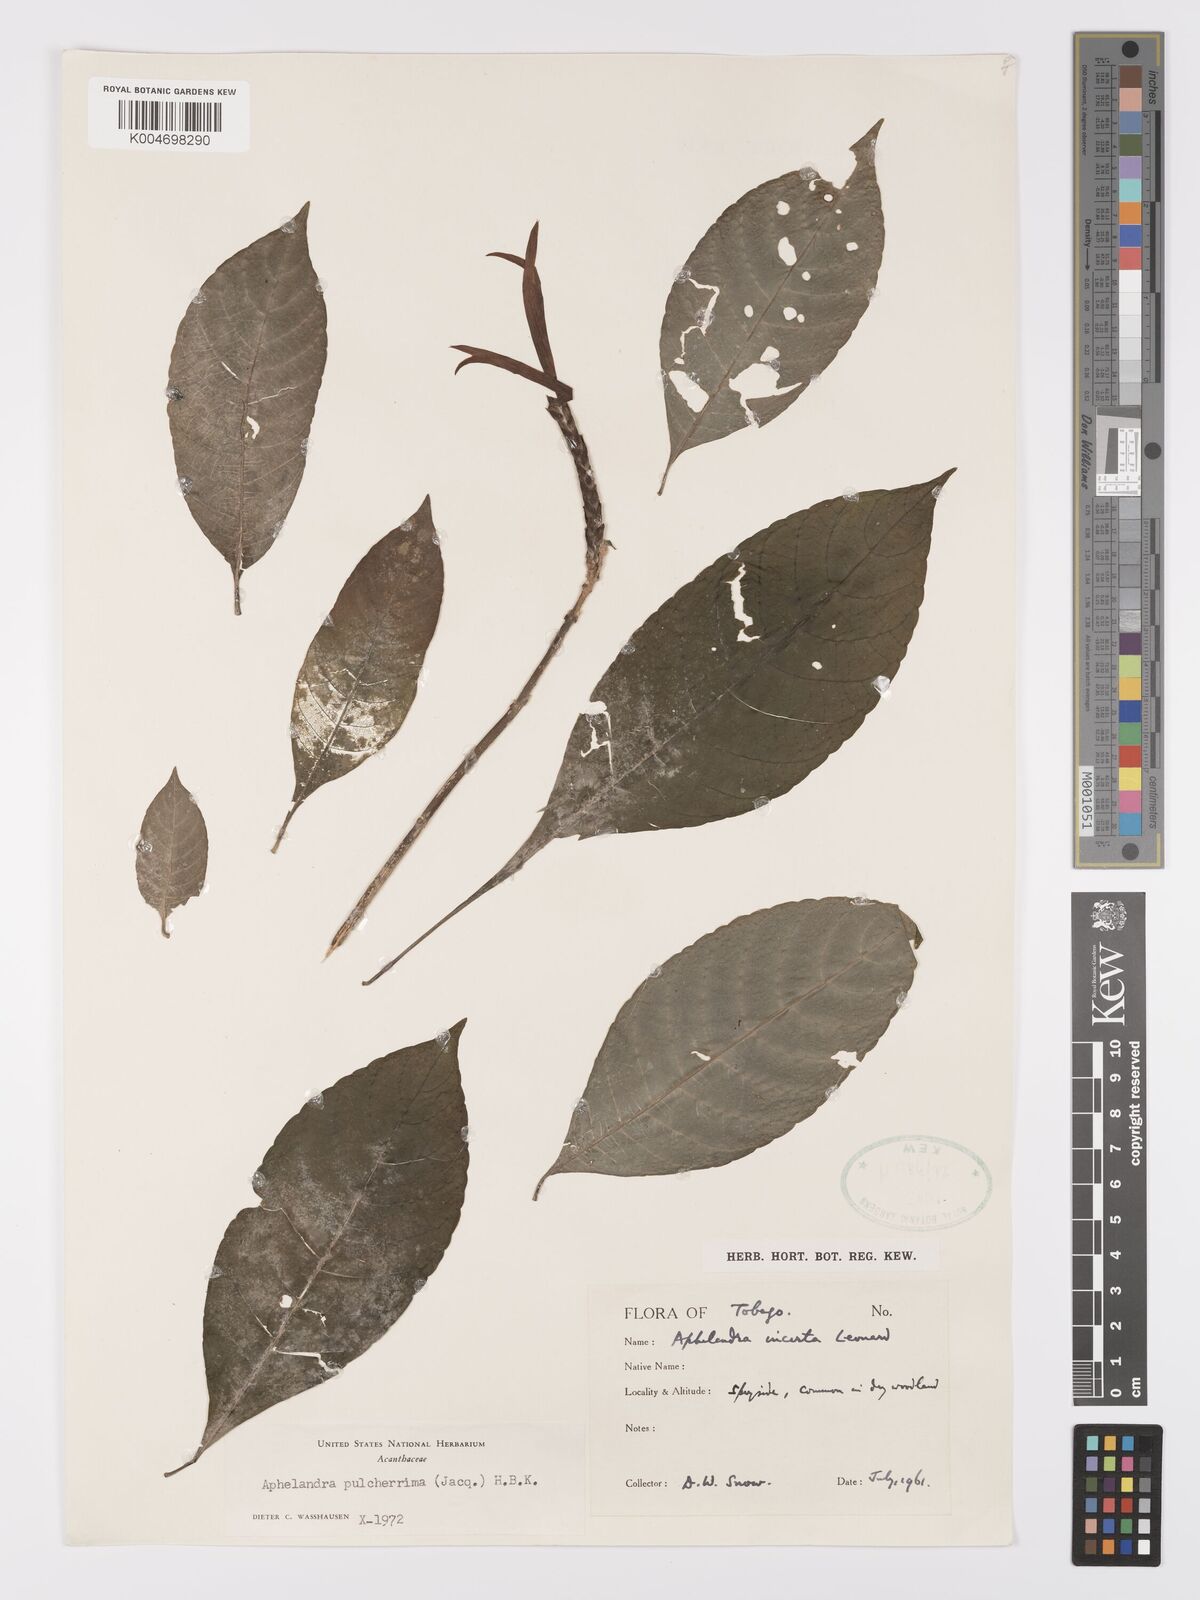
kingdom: Plantae
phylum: Tracheophyta
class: Magnoliopsida
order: Lamiales
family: Acanthaceae
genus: Aphelandra
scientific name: Aphelandra
